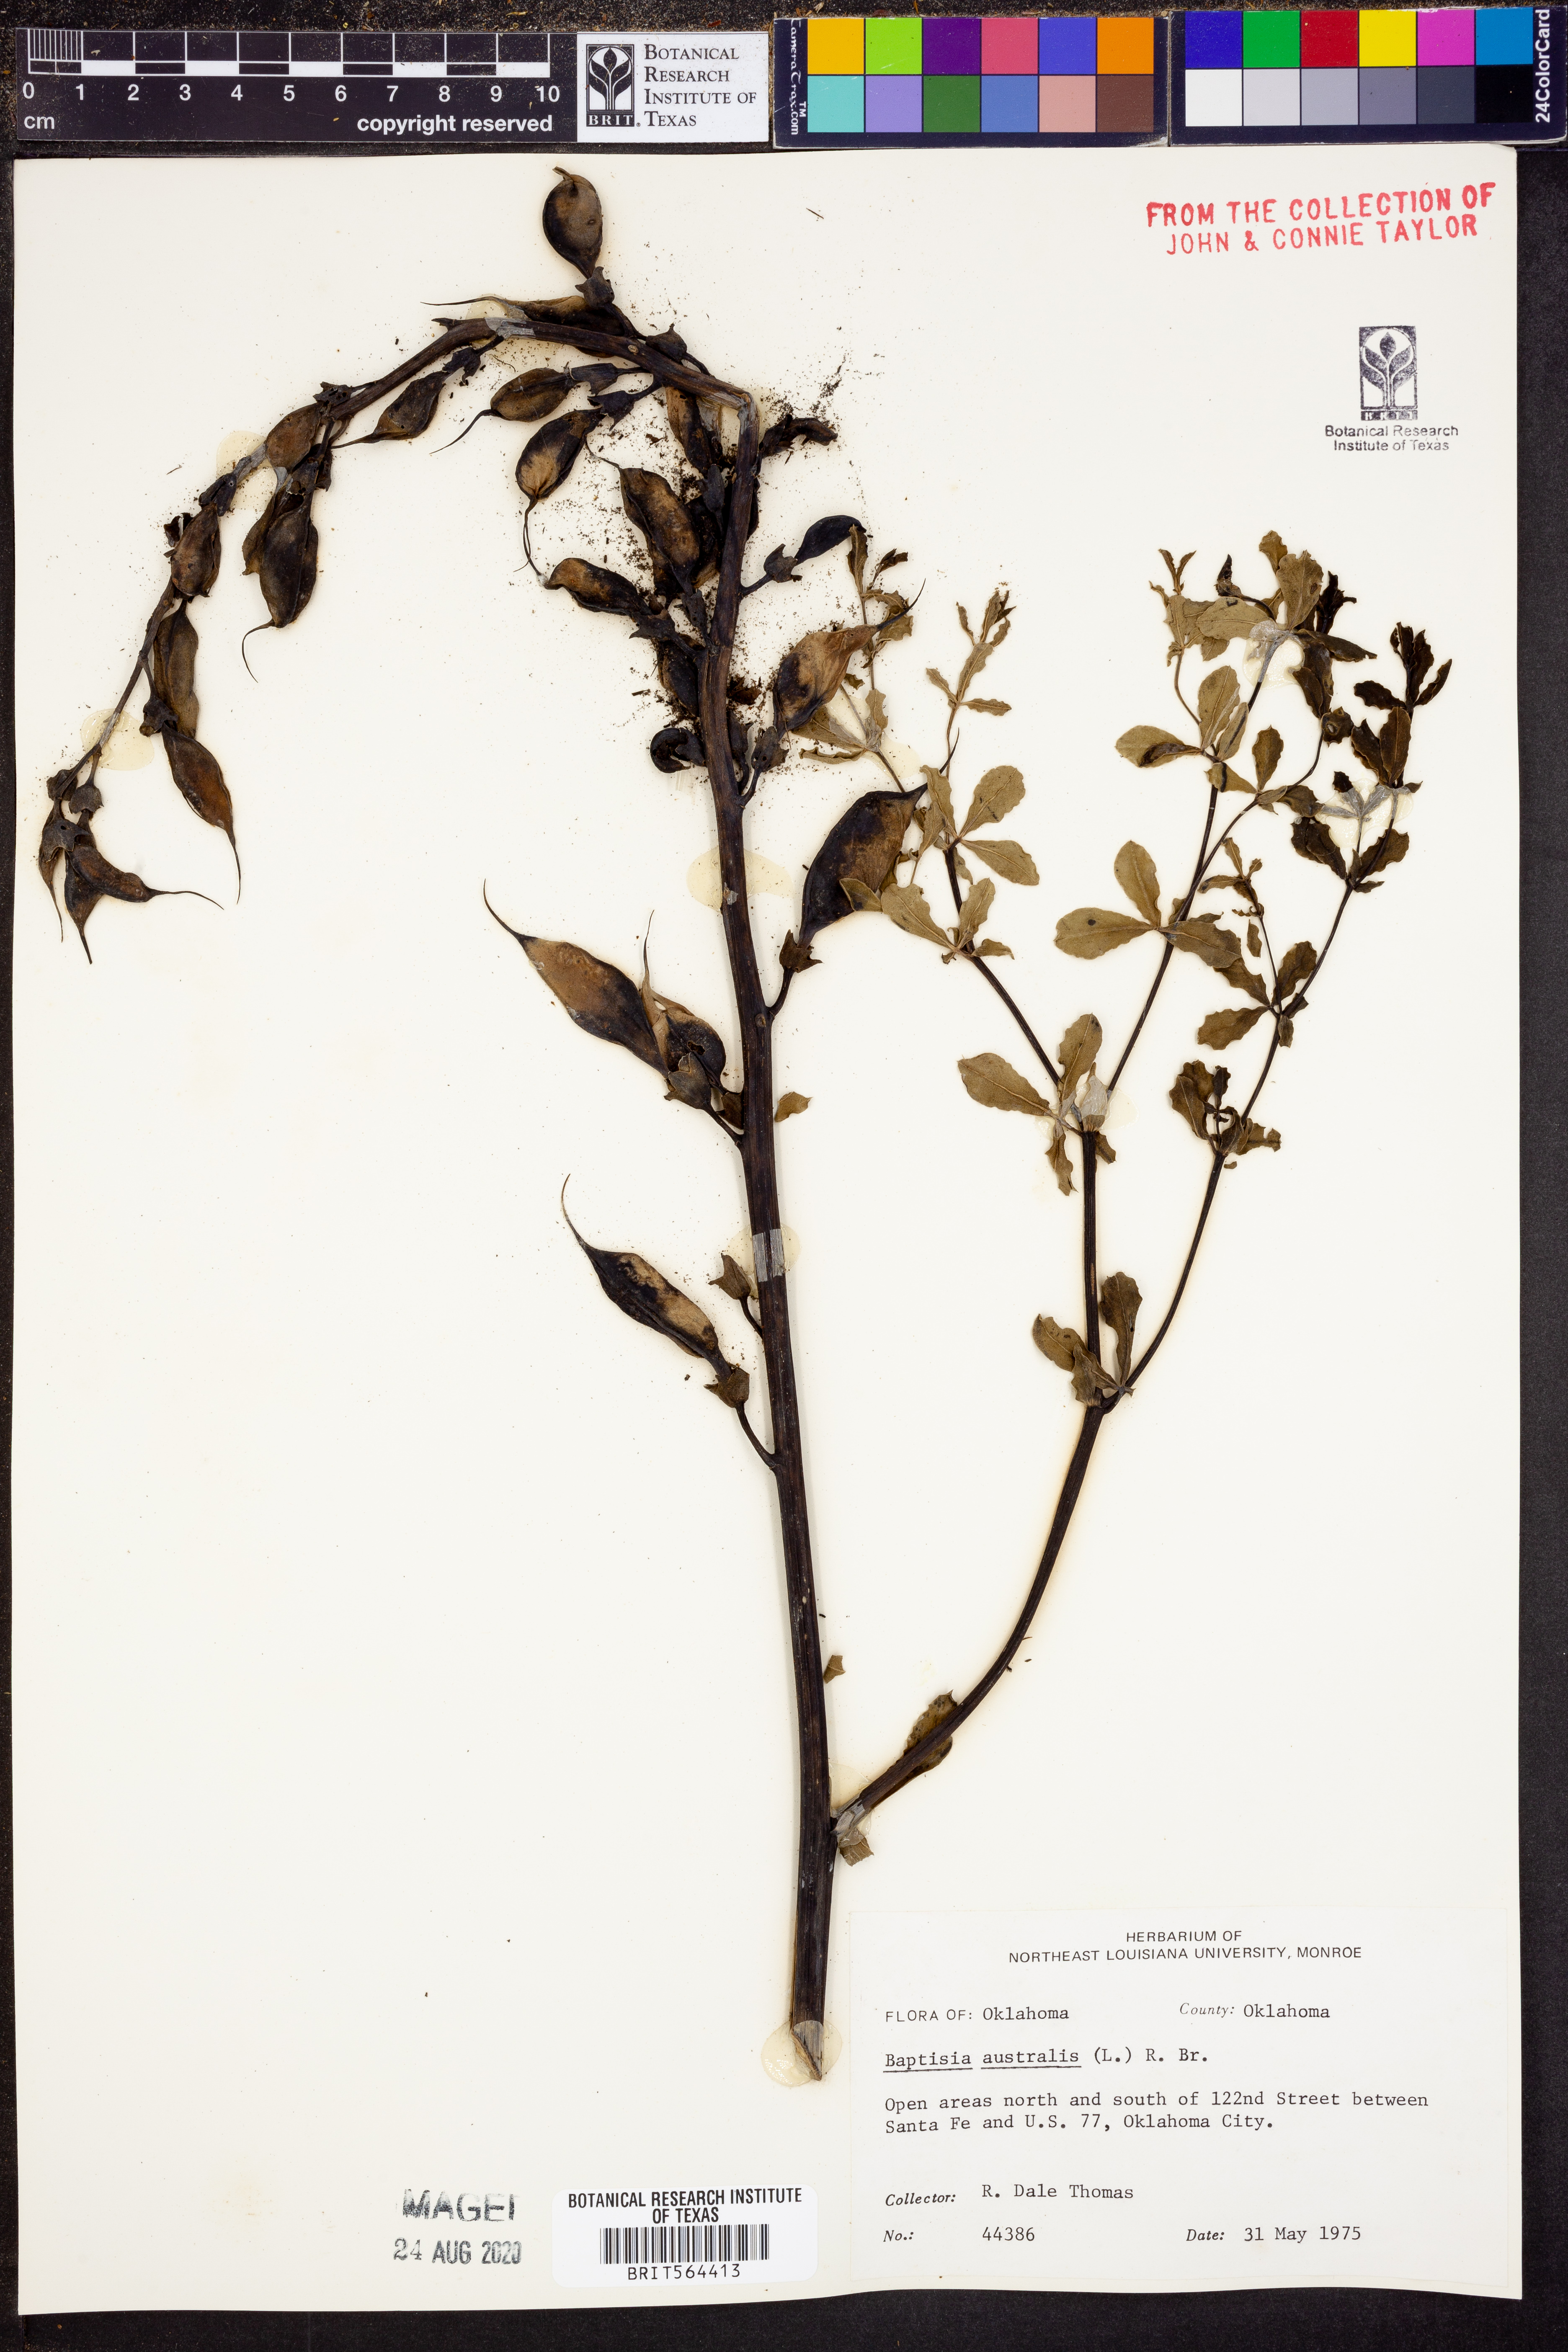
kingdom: Plantae
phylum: Tracheophyta
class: Magnoliopsida
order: Fabales
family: Fabaceae
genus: Baptisia
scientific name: Baptisia australis
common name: Blue false indigo
